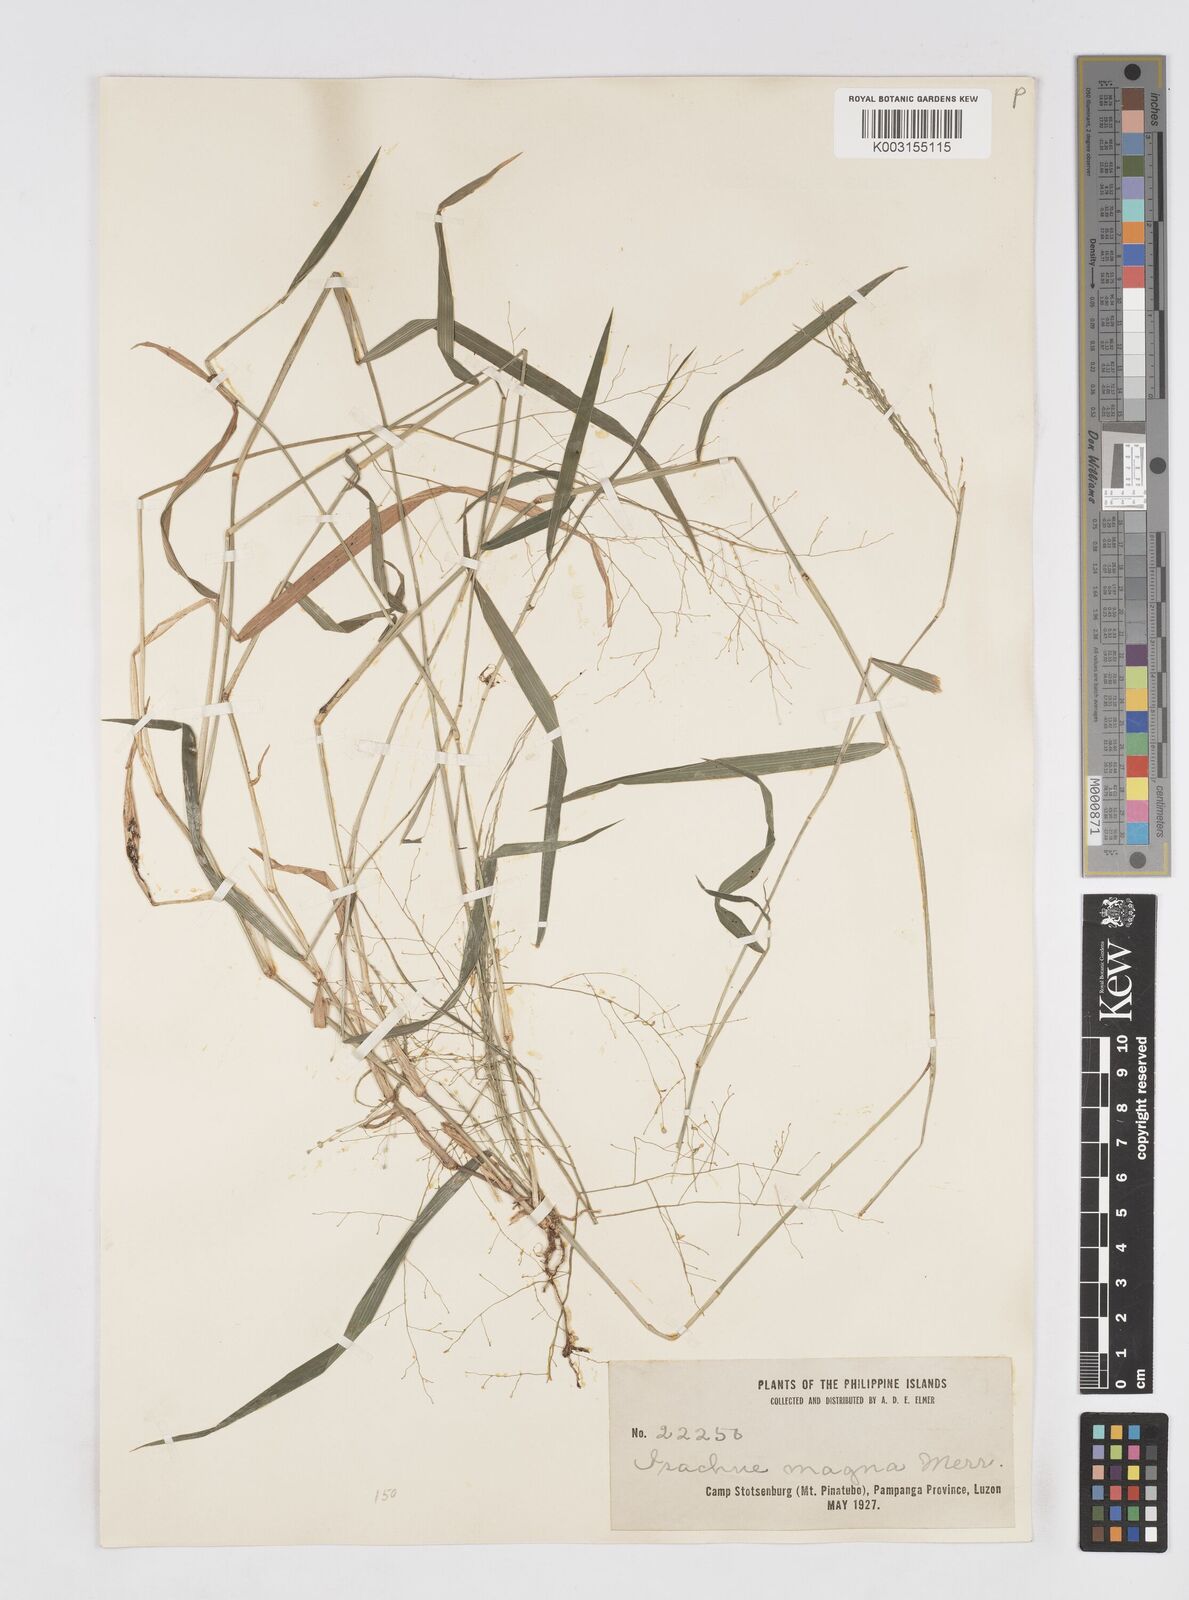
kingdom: Plantae
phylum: Tracheophyta
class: Liliopsida
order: Poales
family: Poaceae
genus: Isachne
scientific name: Isachne albens
